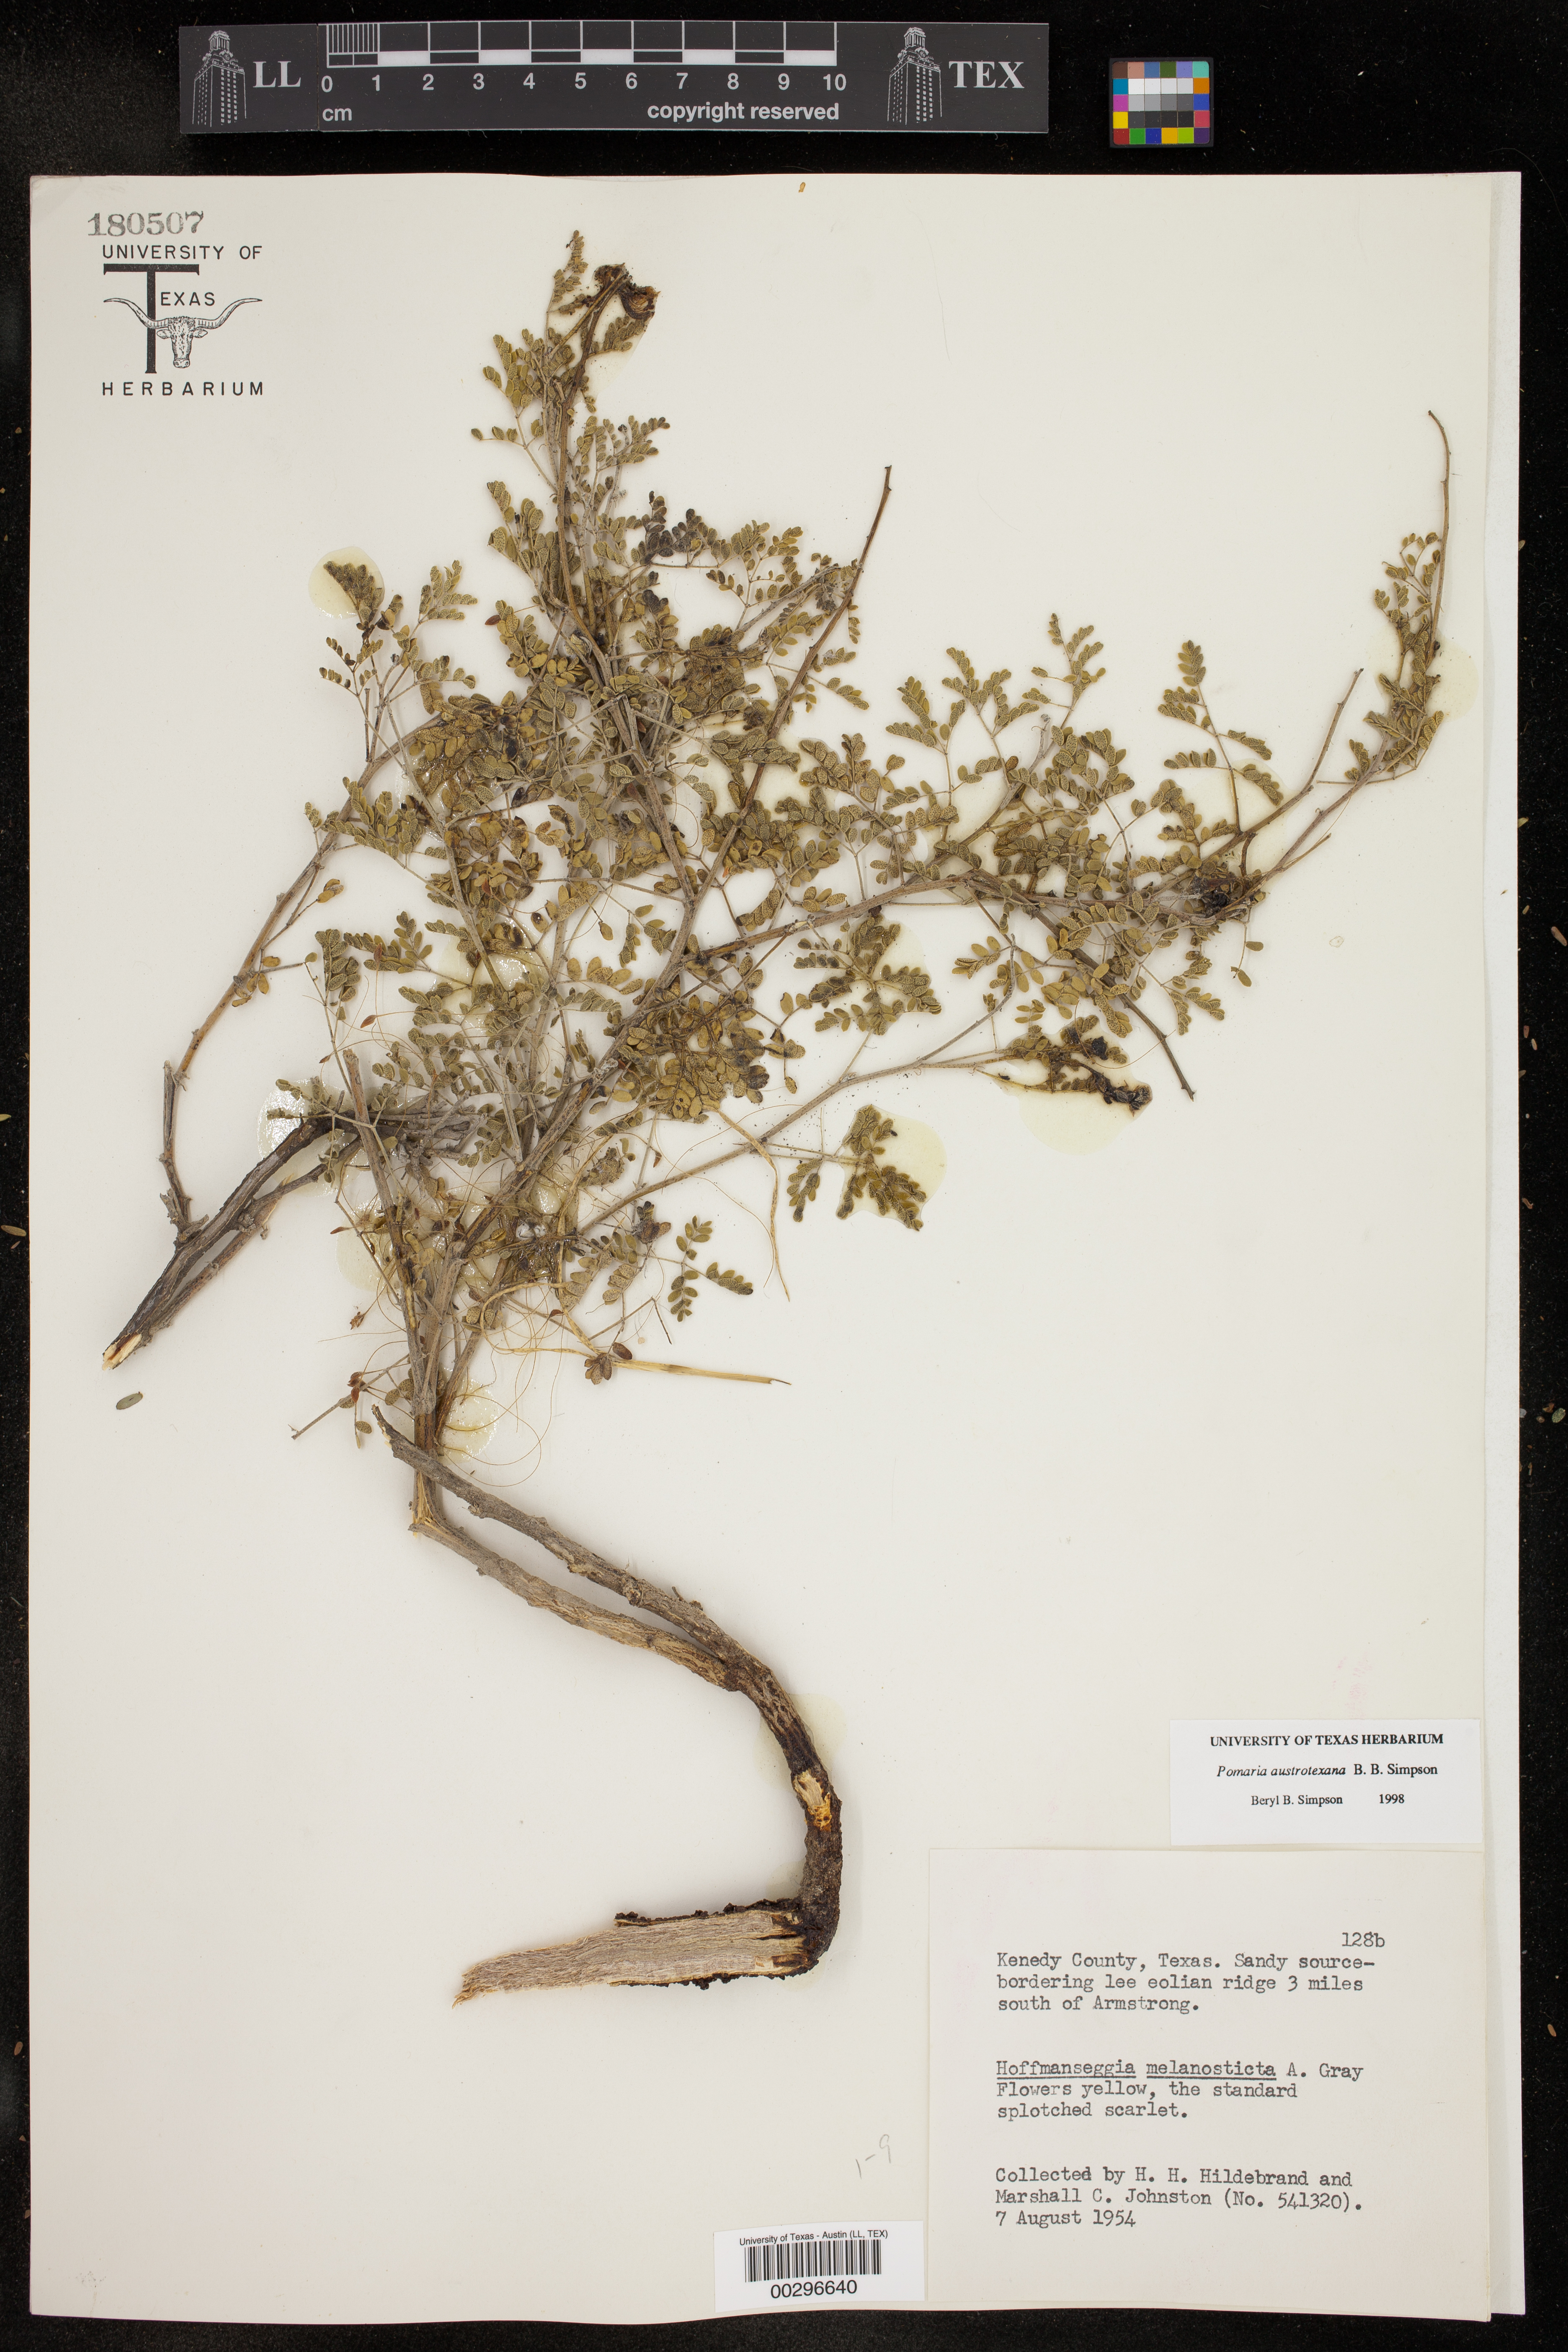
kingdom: Plantae
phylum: Tracheophyta
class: Magnoliopsida
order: Fabales
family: Fabaceae
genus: Pomaria
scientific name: Pomaria austrotexana
